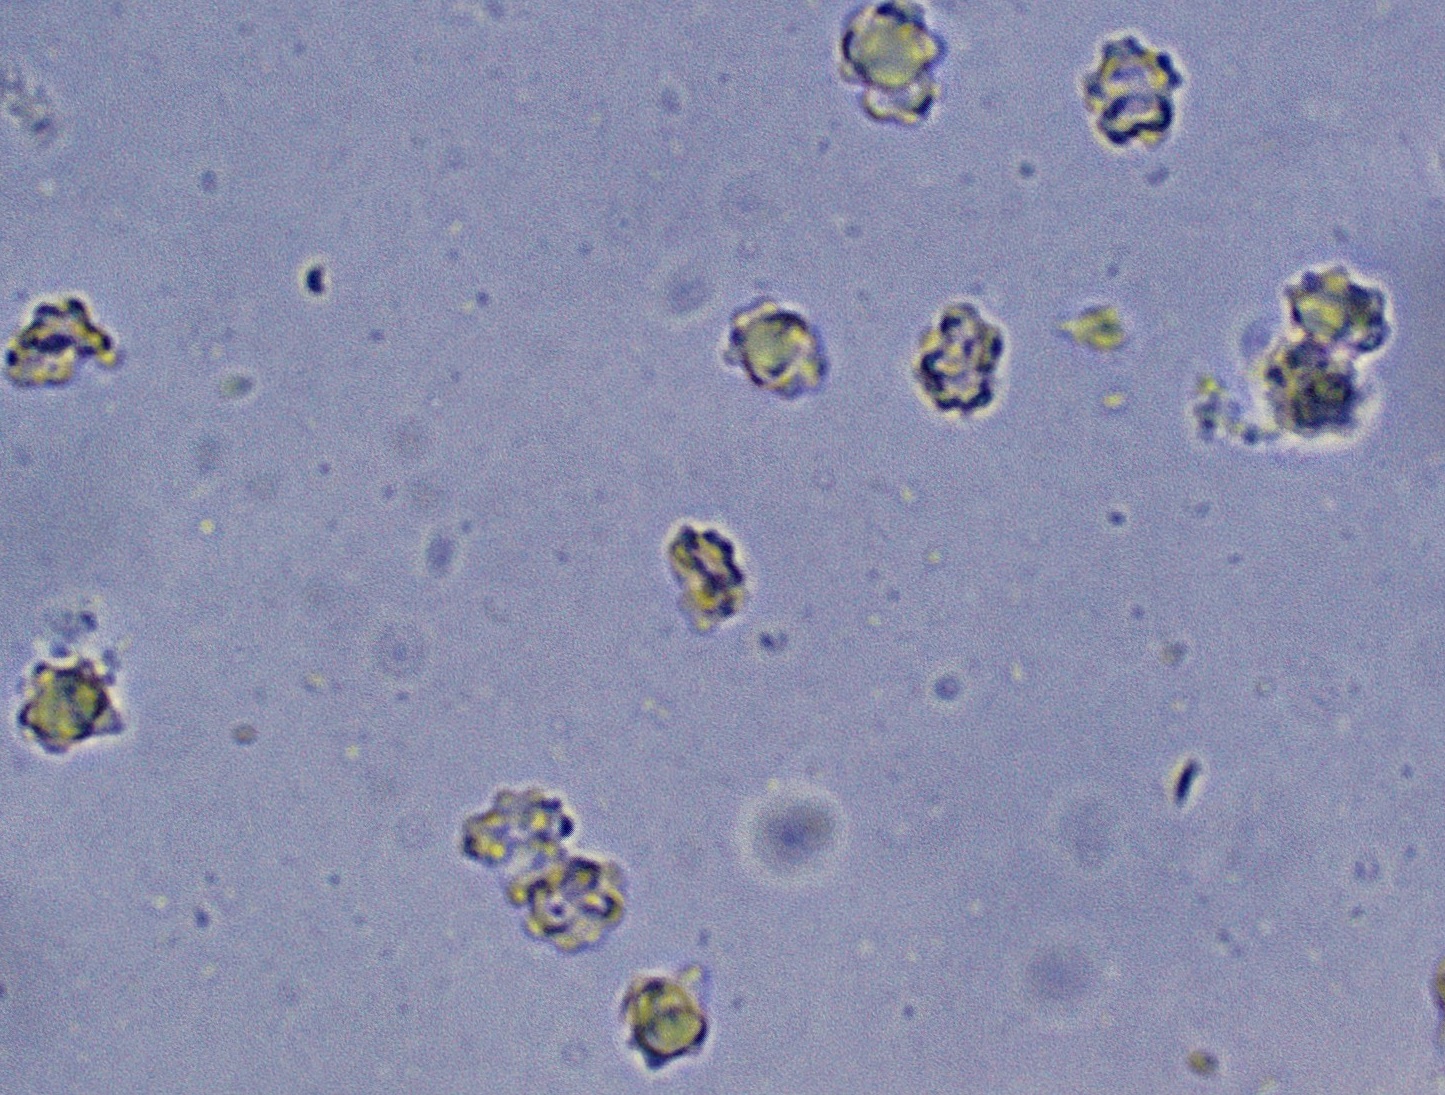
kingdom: Fungi
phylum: Basidiomycota
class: Agaricomycetes
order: Thelephorales
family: Bankeraceae
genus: Hydnellum
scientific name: Hydnellum concrescens
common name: Zoned tooth
